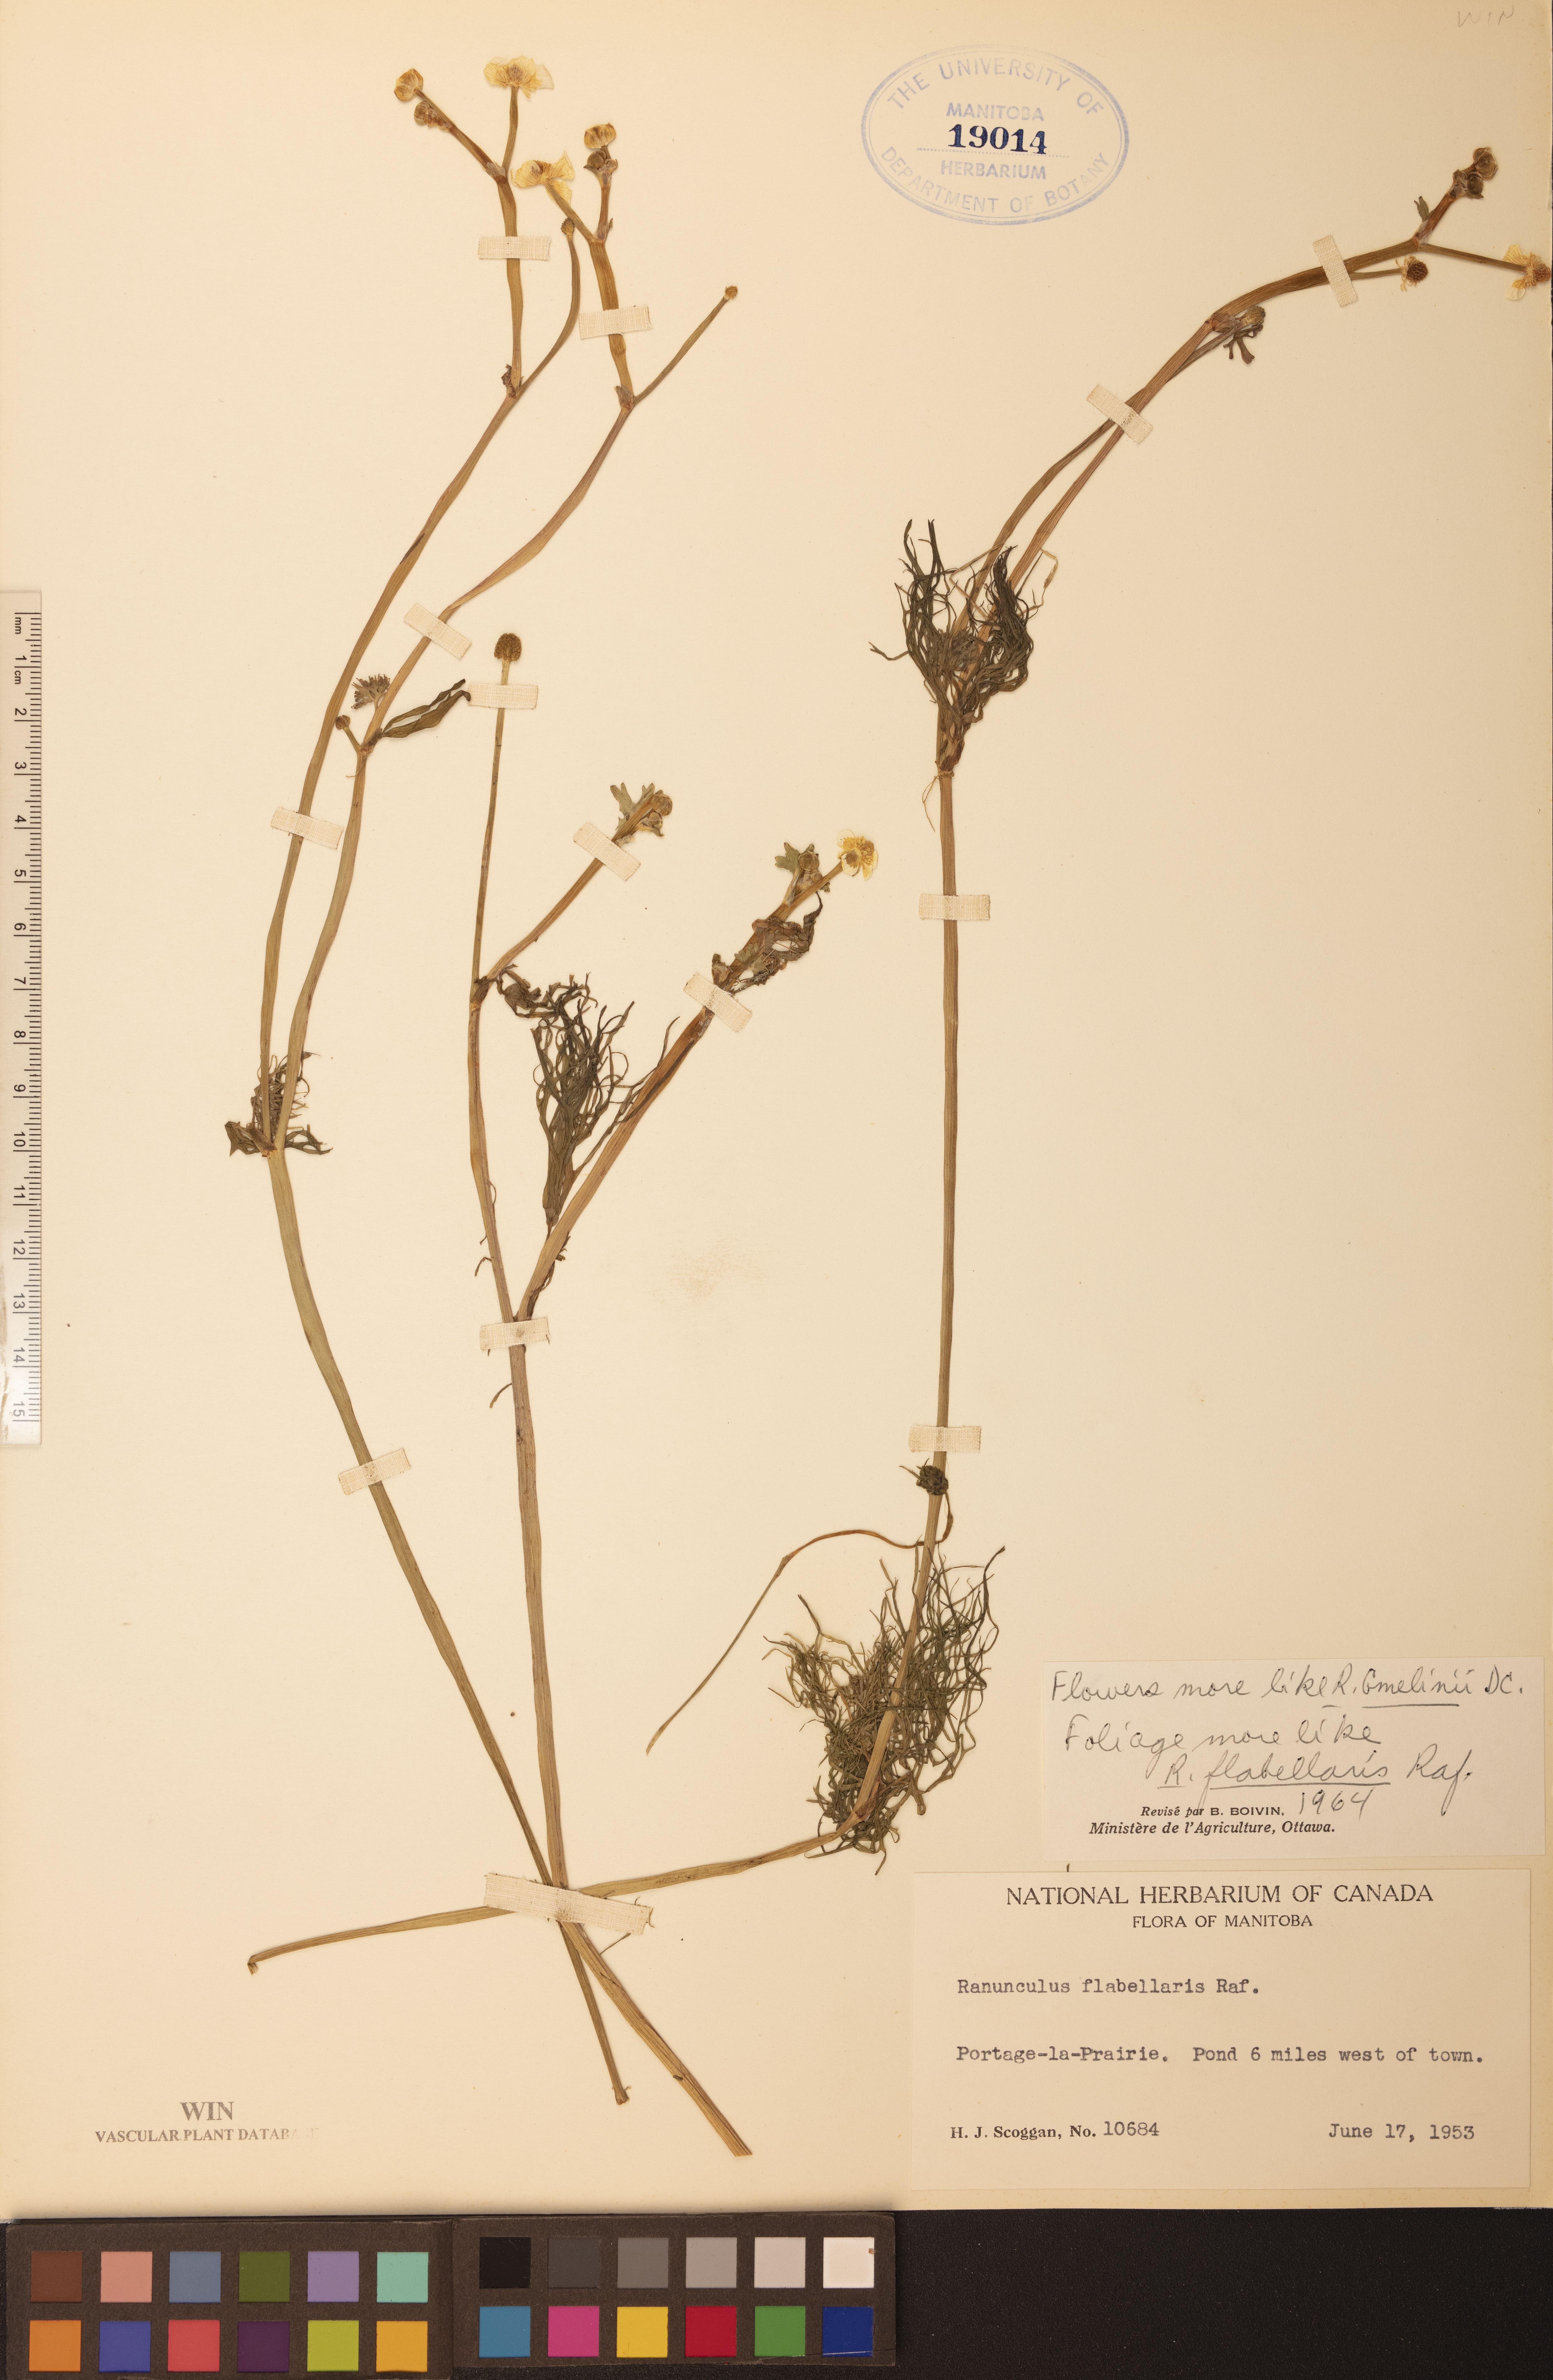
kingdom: Plantae
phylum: Tracheophyta
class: Magnoliopsida
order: Ranunculales
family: Ranunculaceae
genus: Ranunculus
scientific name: Ranunculus flabellaris
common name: Yellow water-crowfoot
